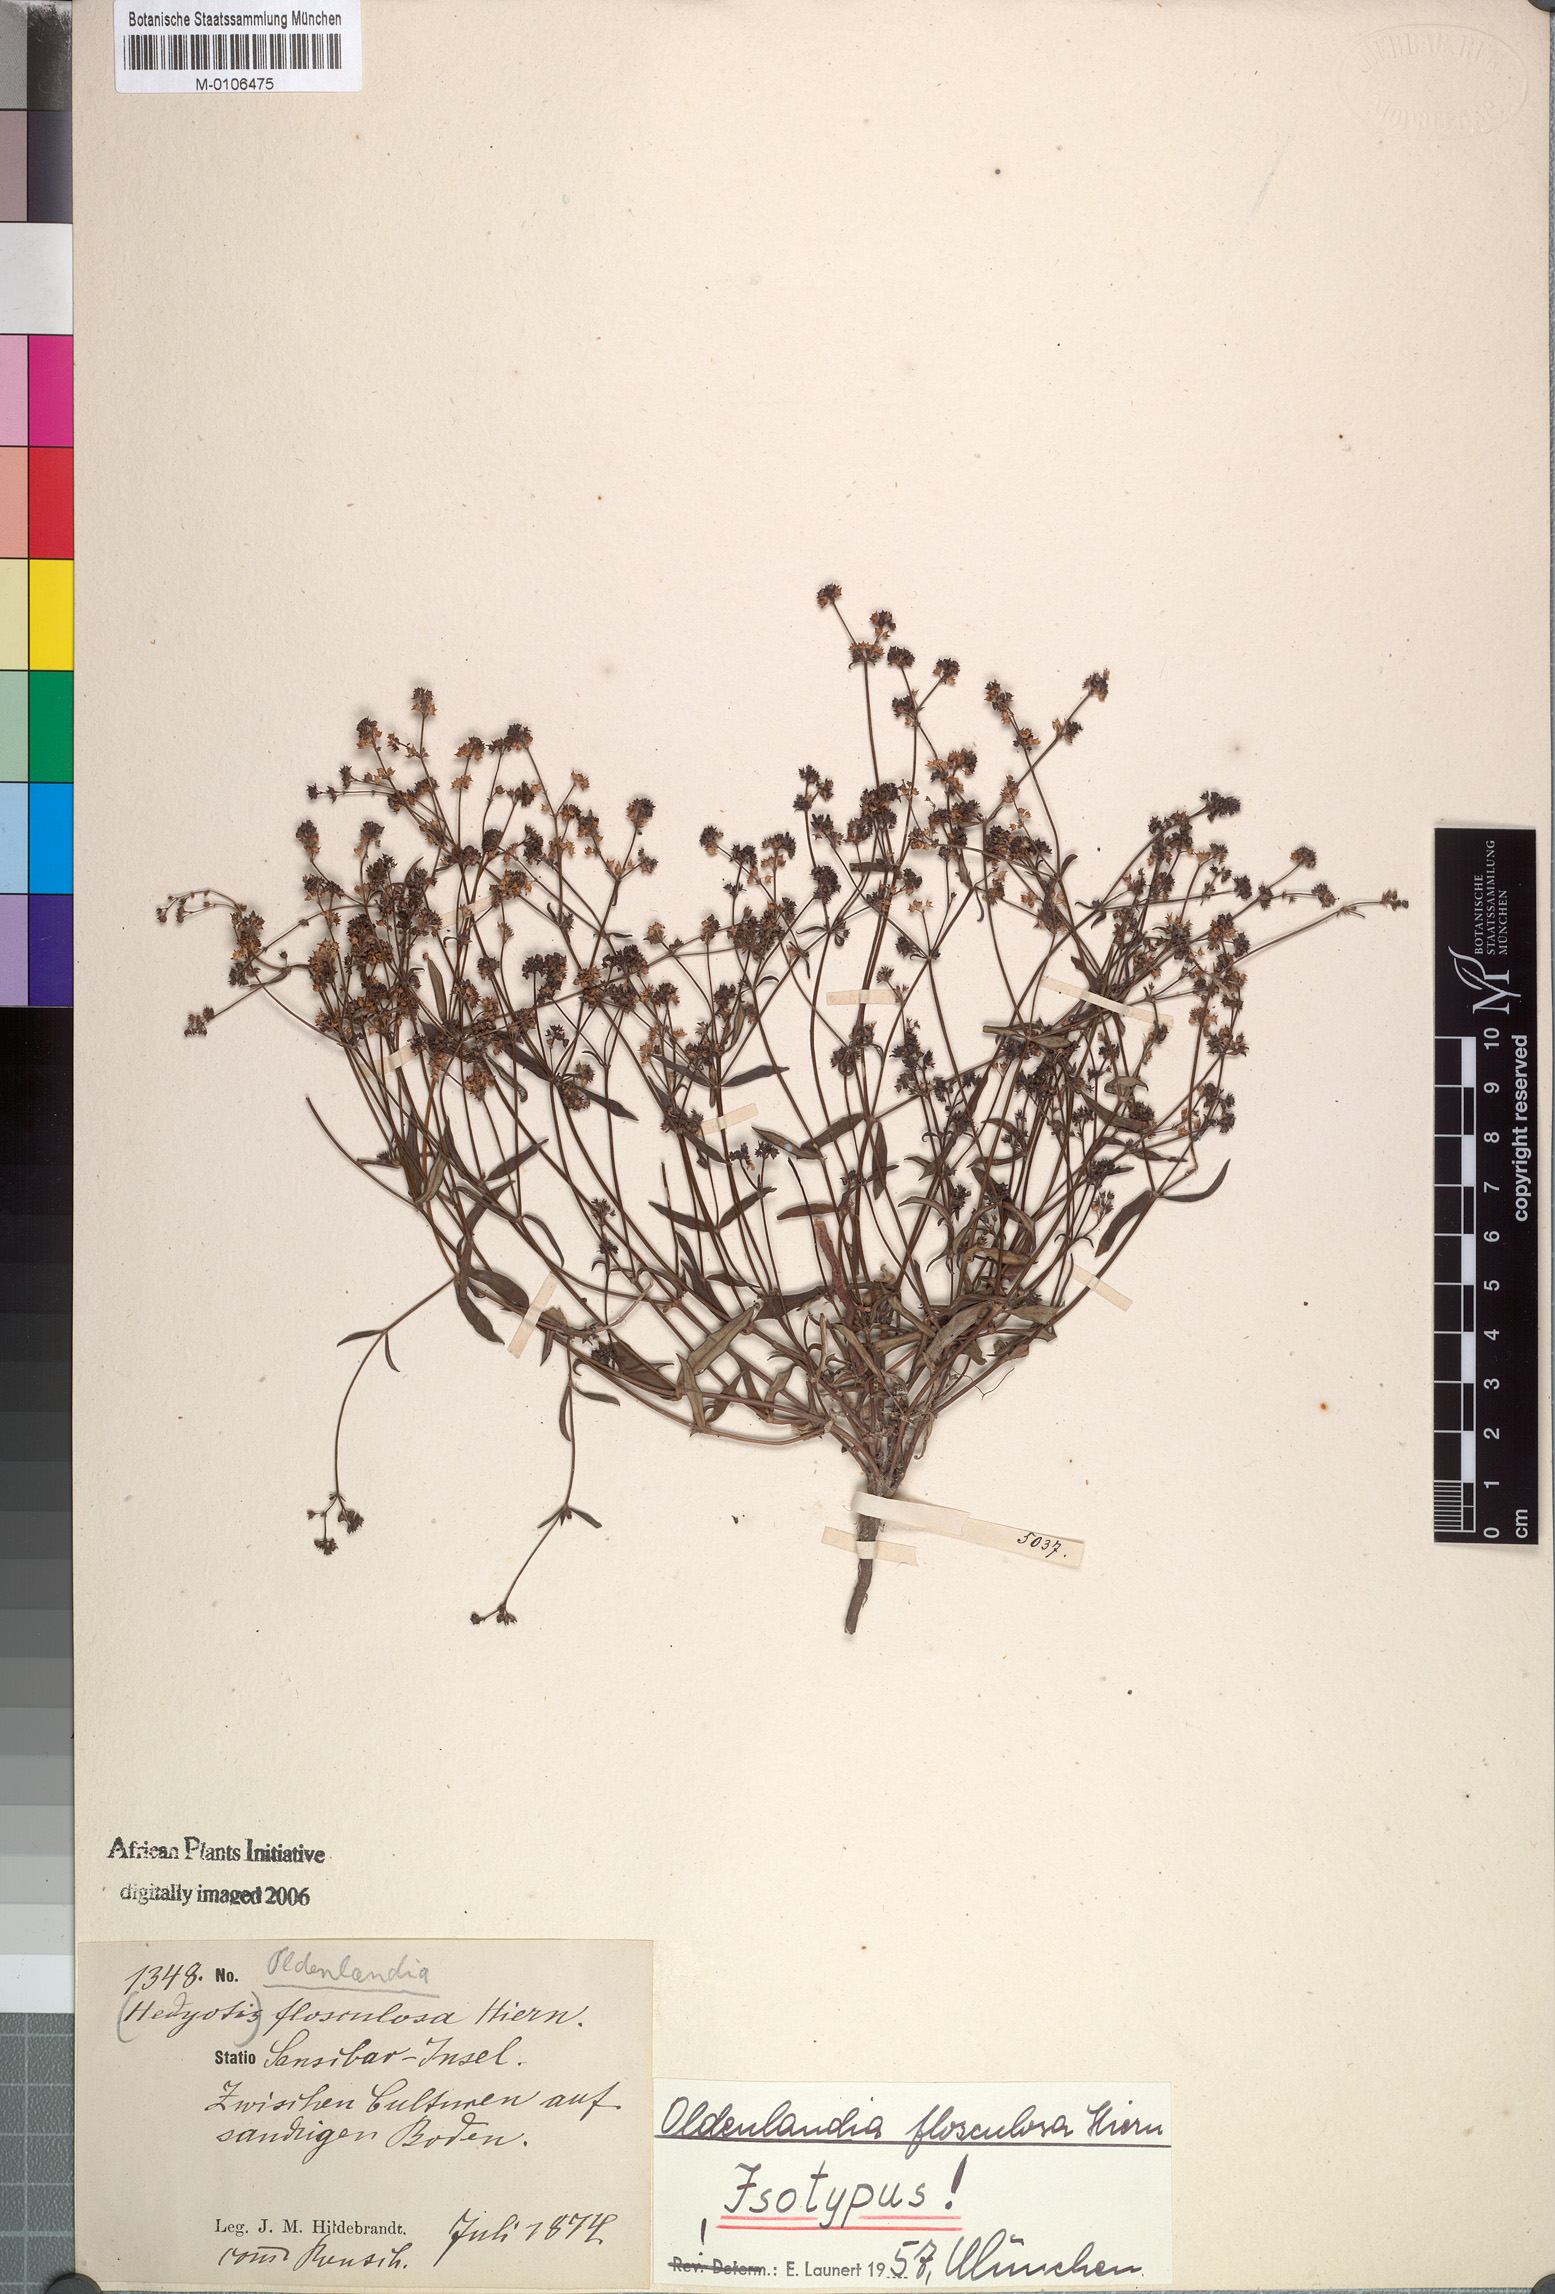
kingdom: Plantae
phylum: Tracheophyta
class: Magnoliopsida
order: Gentianales
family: Rubiaceae
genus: Oldenlandia
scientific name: Oldenlandia flosculosa
